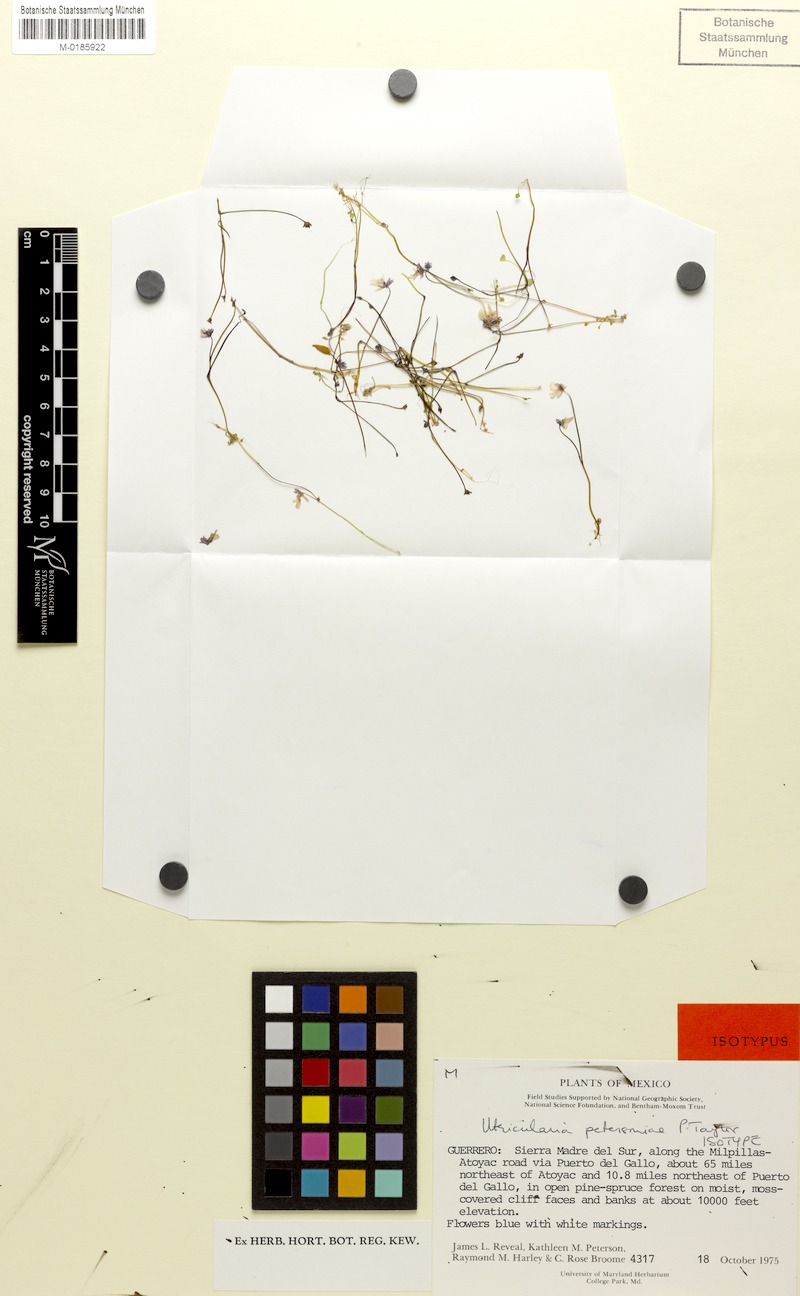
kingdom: Plantae
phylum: Tracheophyta
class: Magnoliopsida
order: Lamiales
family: Lentibulariaceae
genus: Utricularia
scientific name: Utricularia petersoniae
